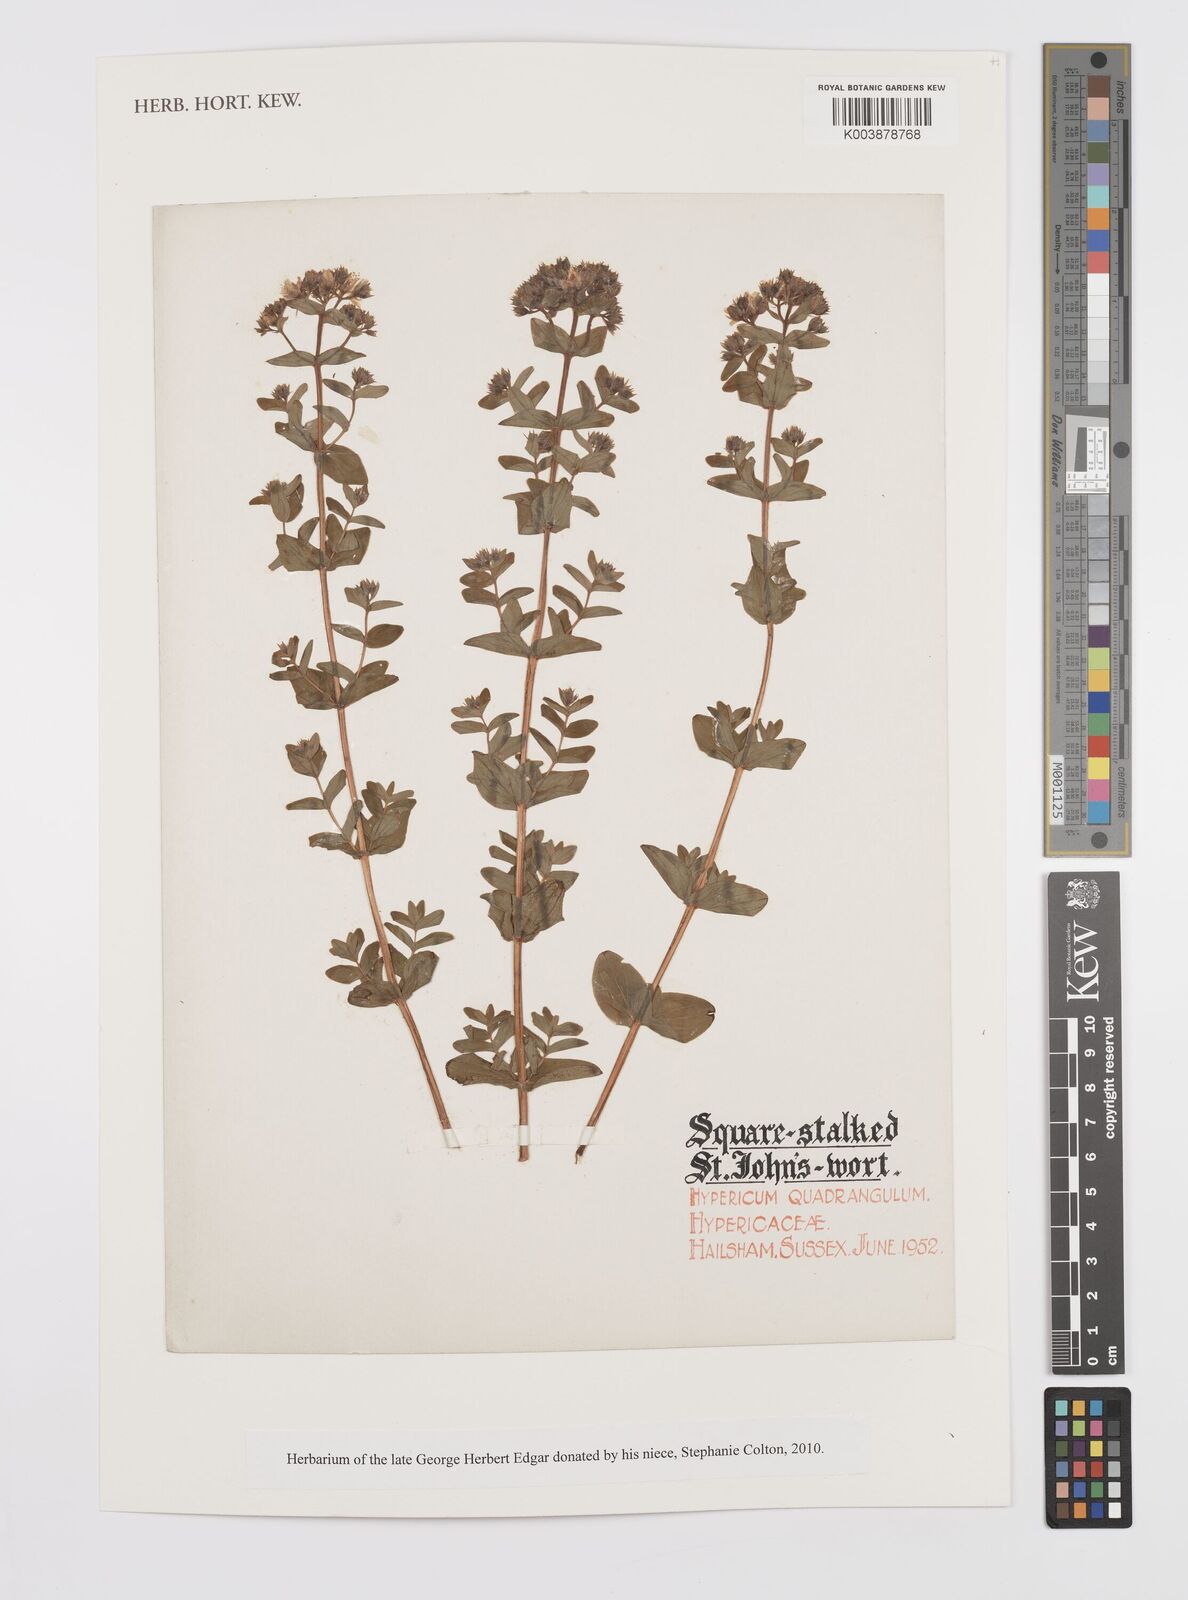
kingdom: Plantae
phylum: Tracheophyta
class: Magnoliopsida
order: Malpighiales
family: Hypericaceae
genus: Hypericum
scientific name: Hypericum tetrapterum
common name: Square-stalked st. john's-wort
